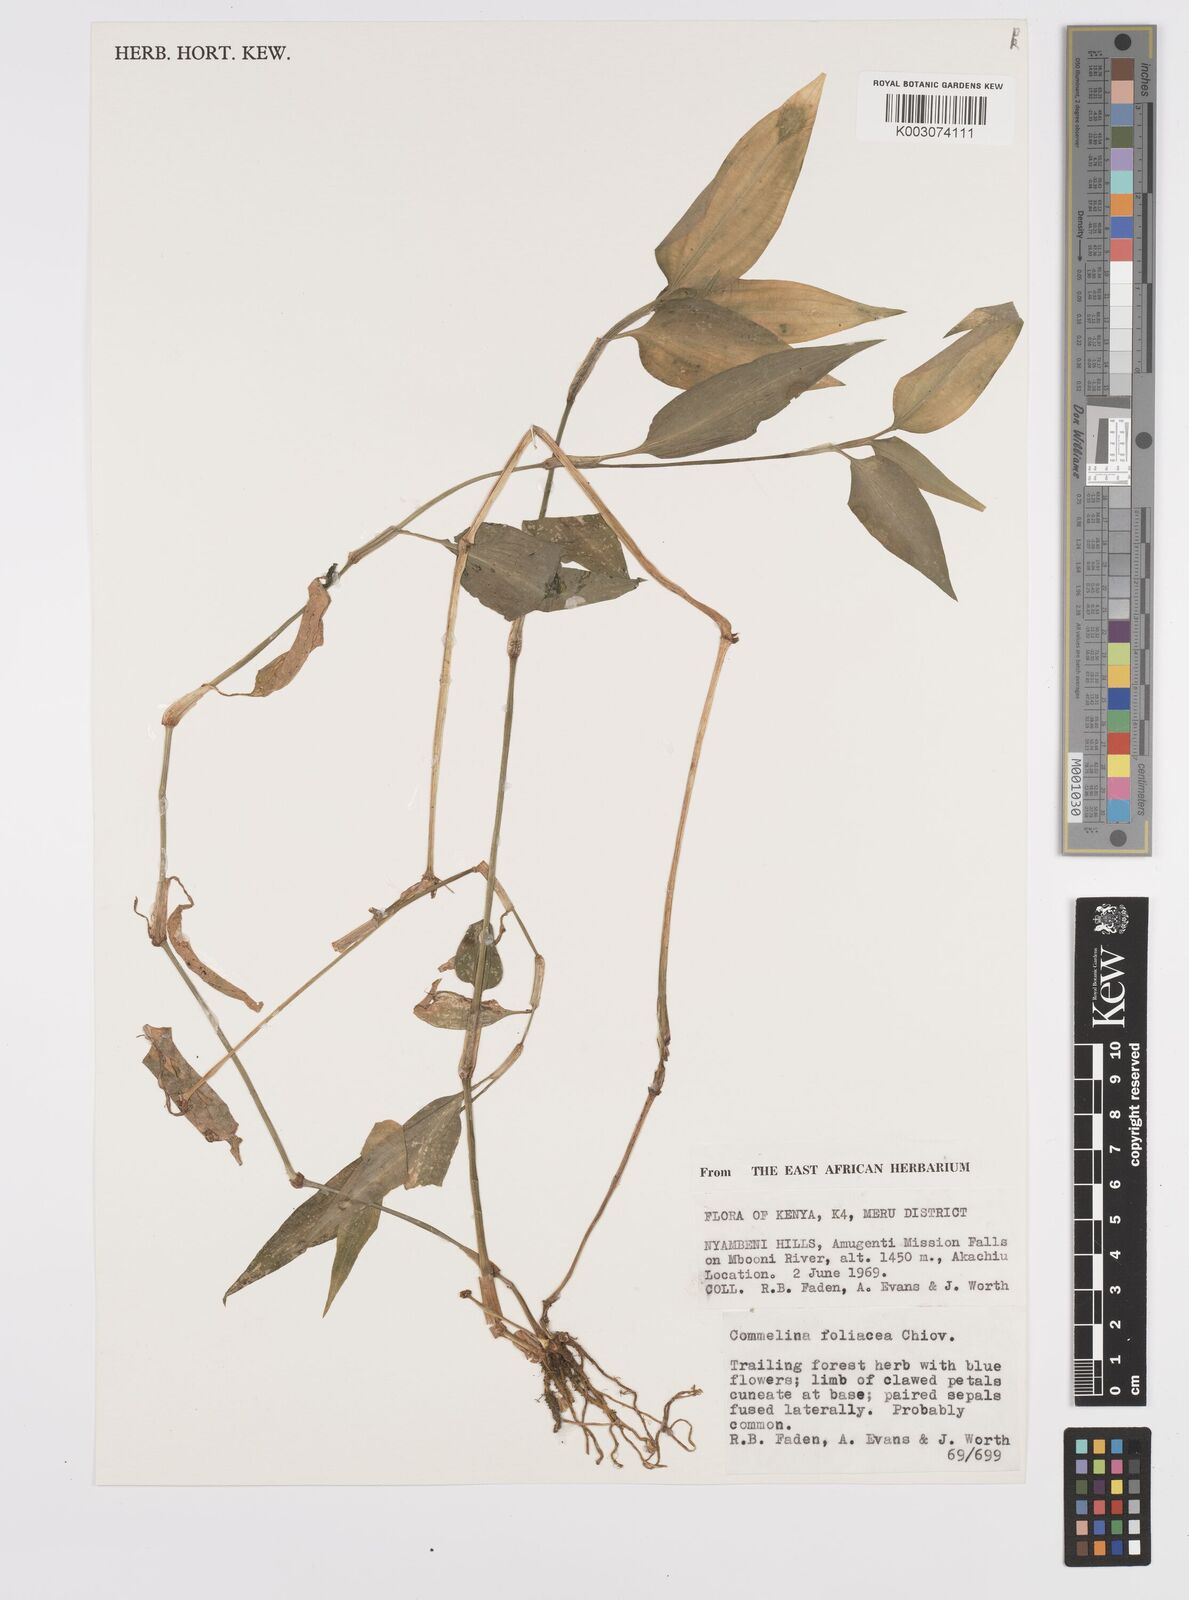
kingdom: Plantae
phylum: Tracheophyta
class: Liliopsida
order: Commelinales
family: Commelinaceae
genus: Commelina
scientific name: Commelina foliacea
